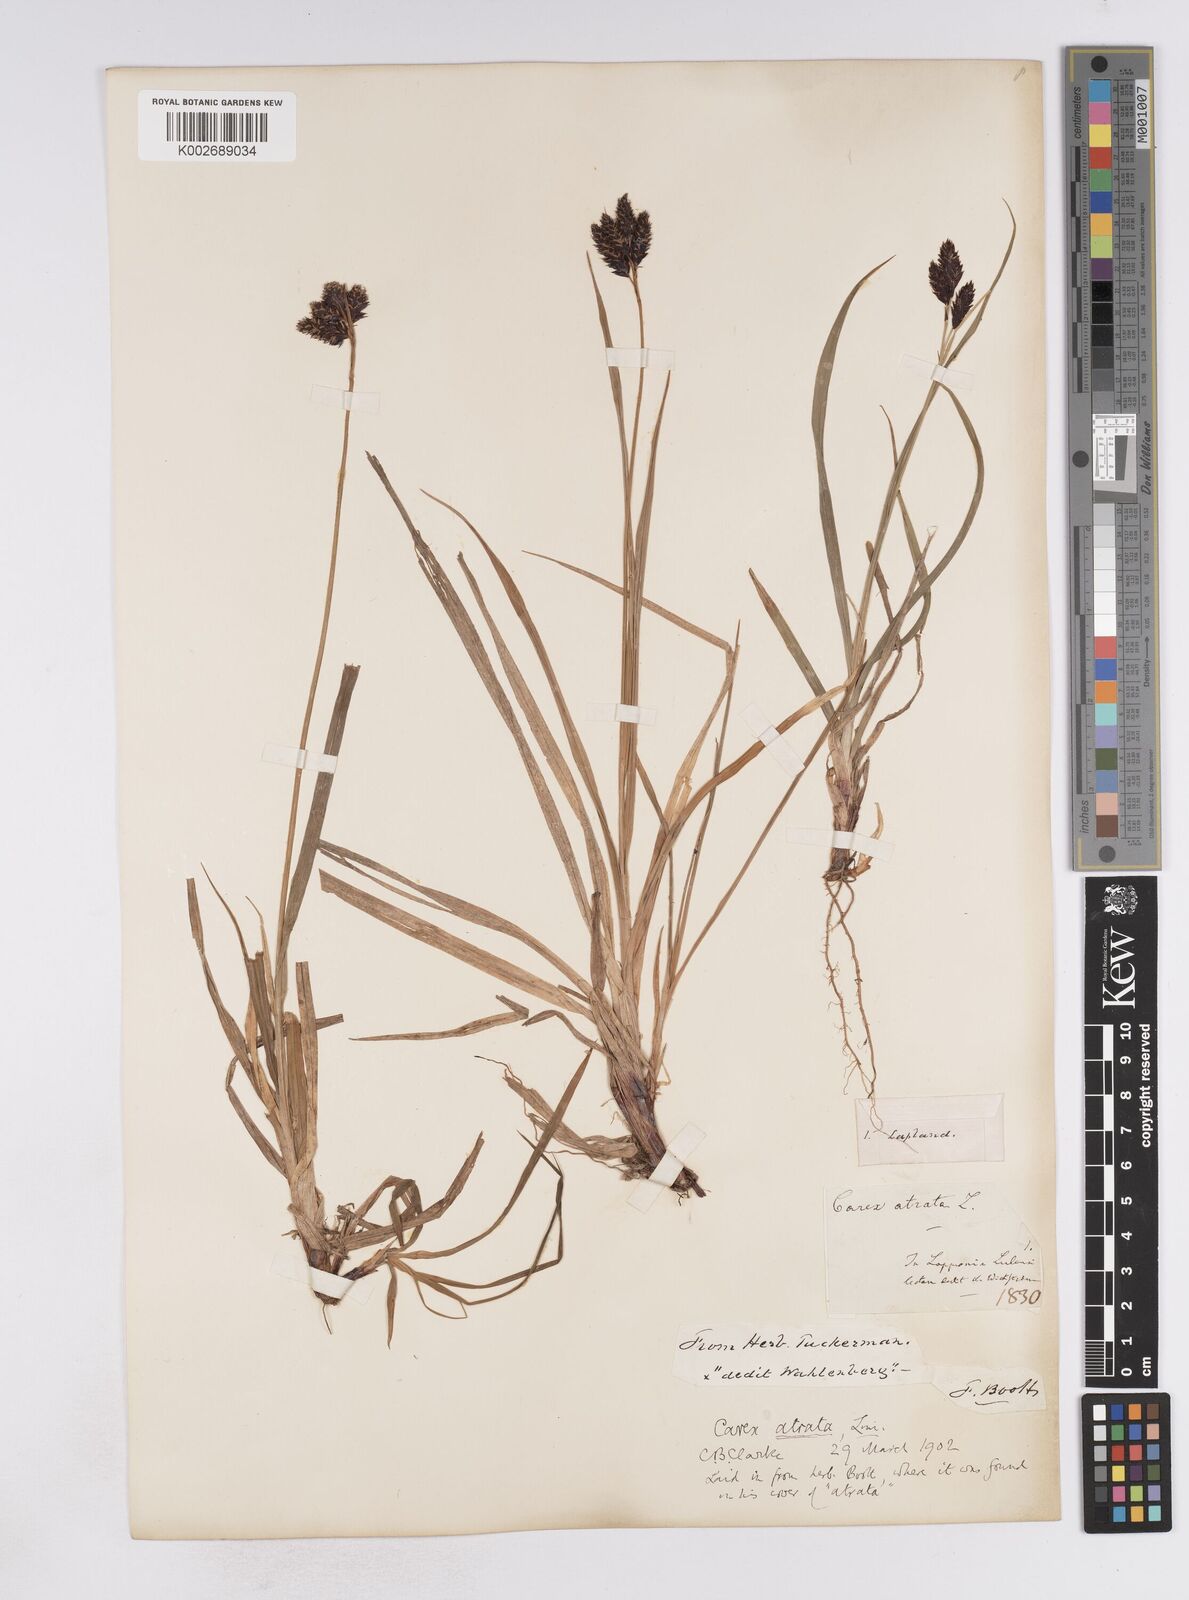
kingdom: Plantae
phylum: Tracheophyta
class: Liliopsida
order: Poales
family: Cyperaceae
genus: Carex
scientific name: Carex atrata
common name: Black alpine sedge
